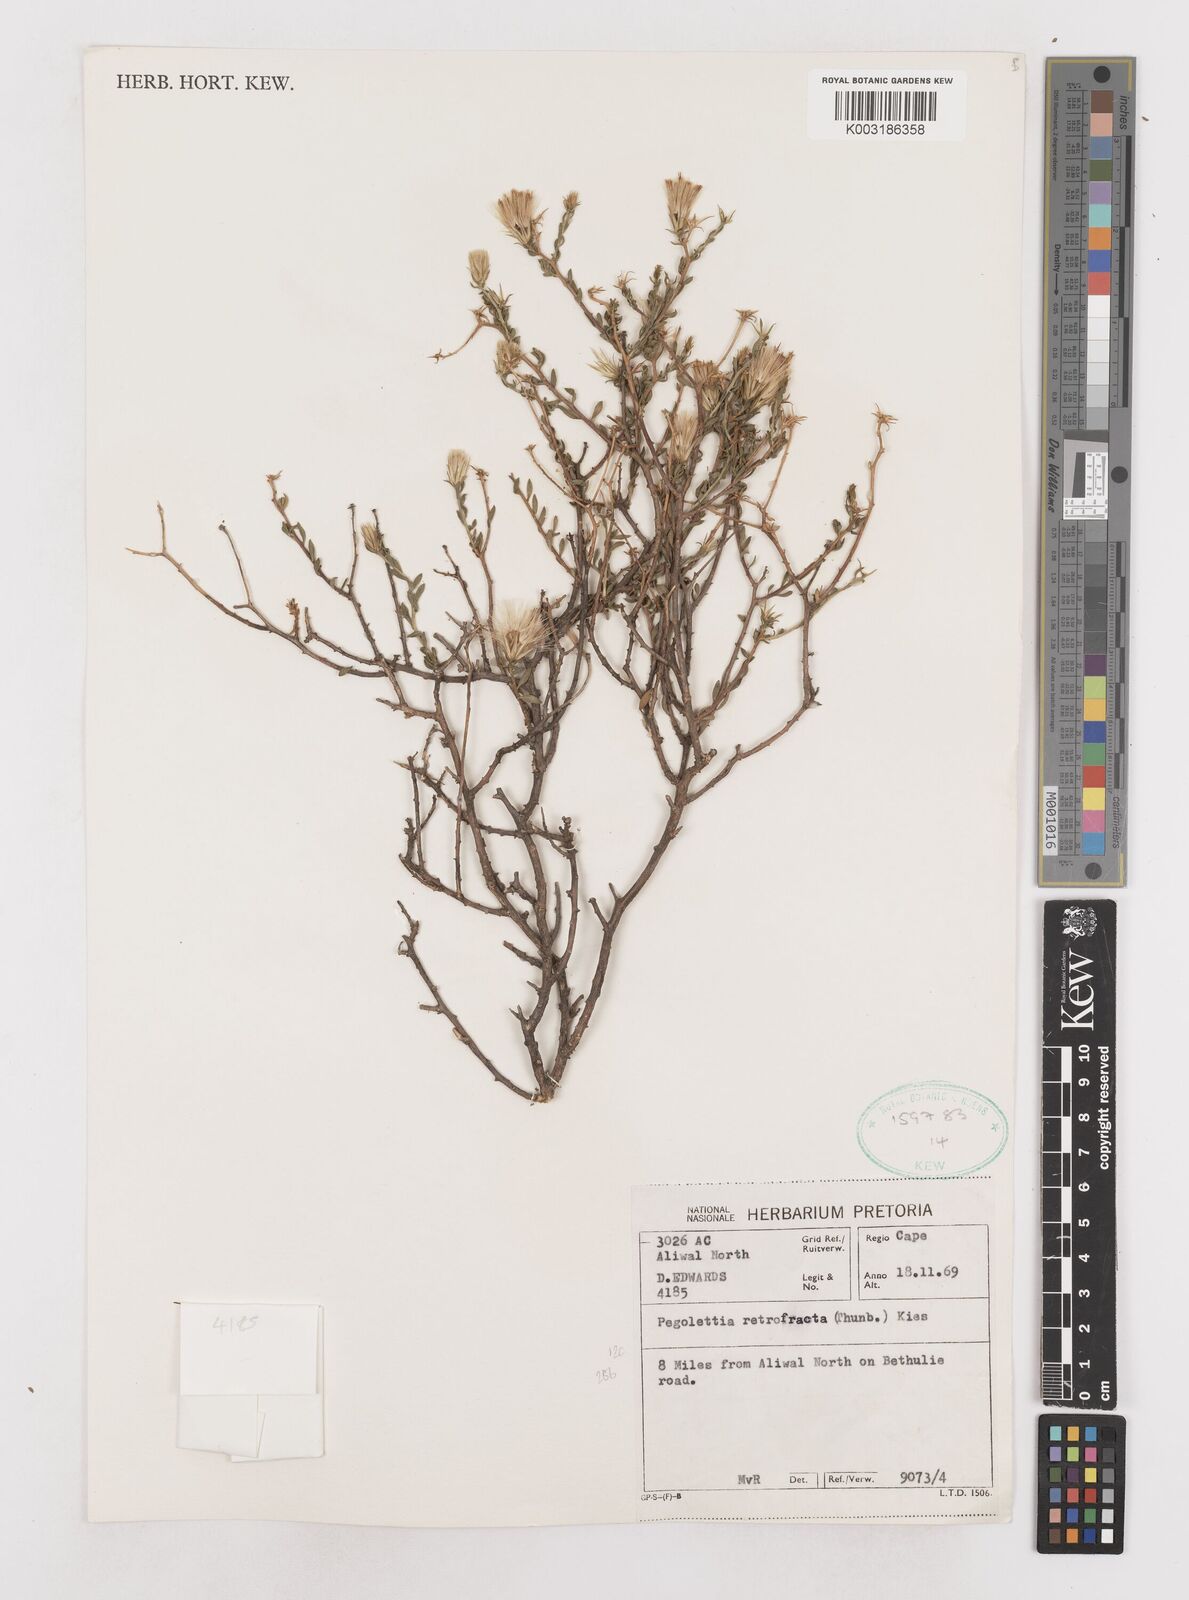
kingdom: Plantae
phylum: Tracheophyta
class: Magnoliopsida
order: Asterales
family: Asteraceae
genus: Pegolettia
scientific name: Pegolettia retrofracta
